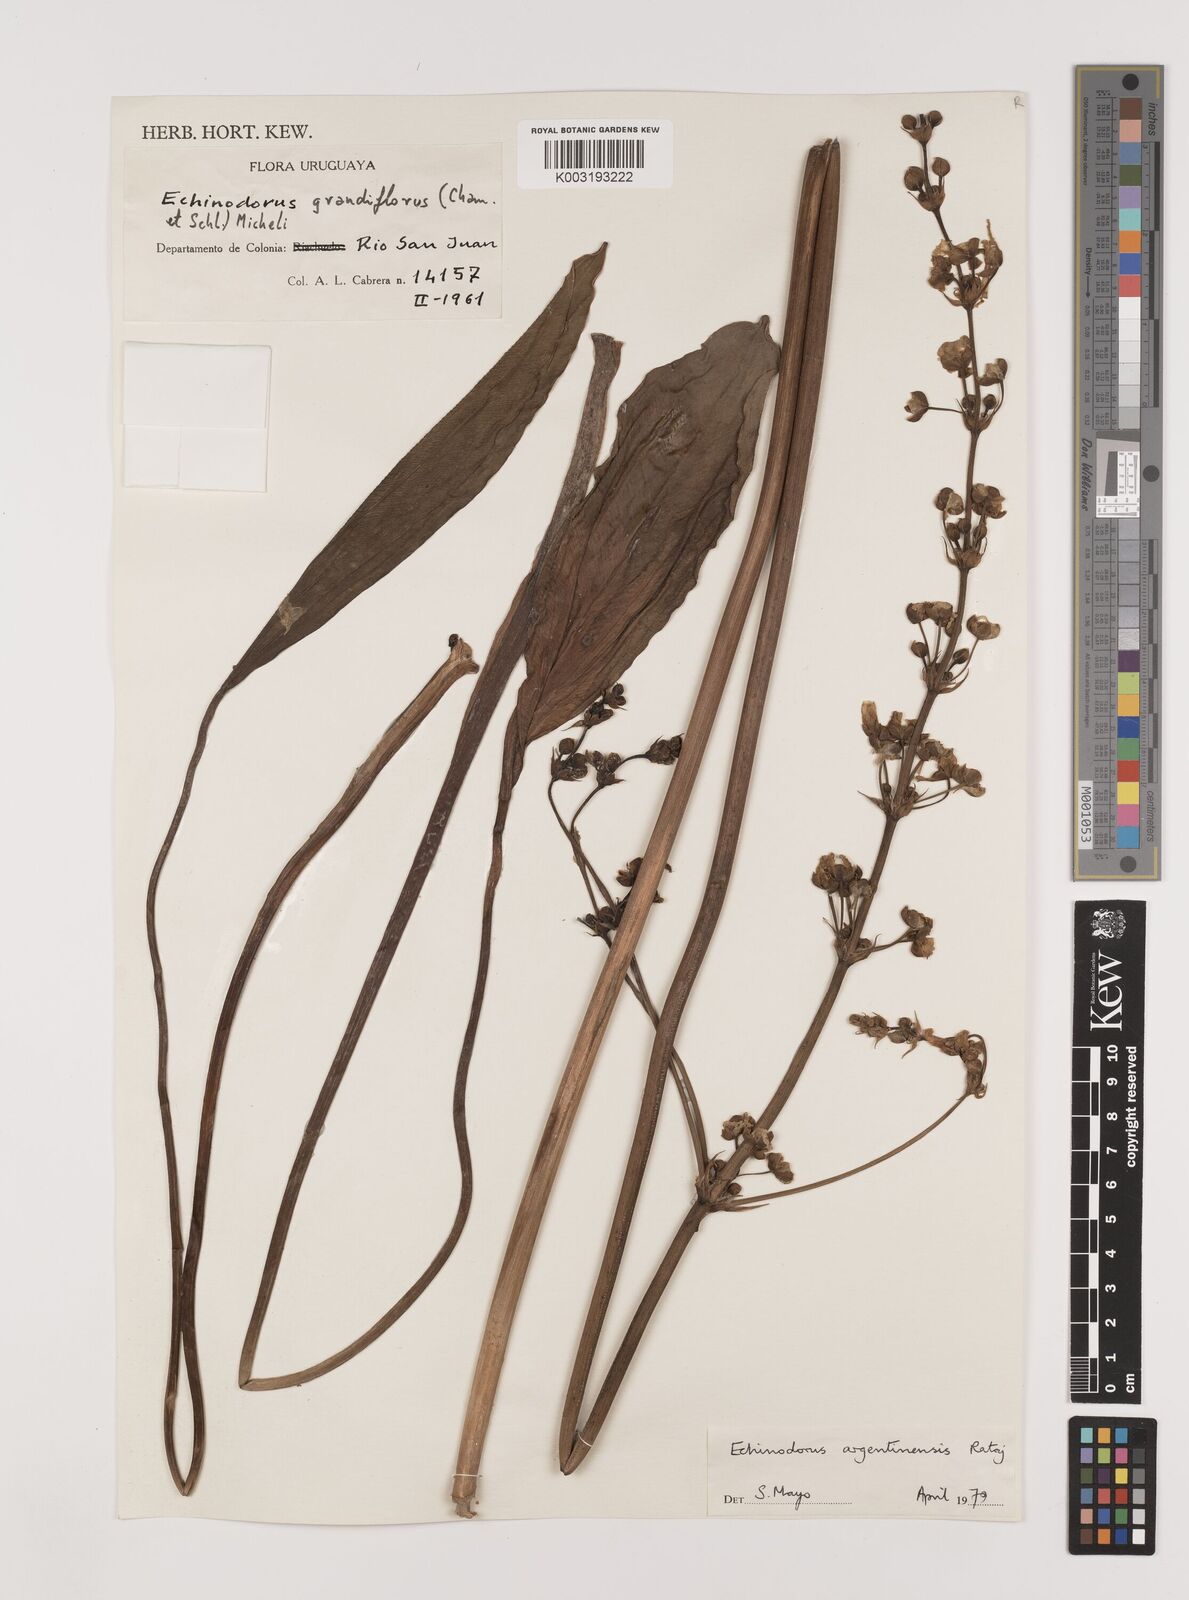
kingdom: Plantae
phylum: Tracheophyta
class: Liliopsida
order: Alismatales
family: Alismataceae
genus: Aquarius
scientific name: Aquarius grandiflorus
